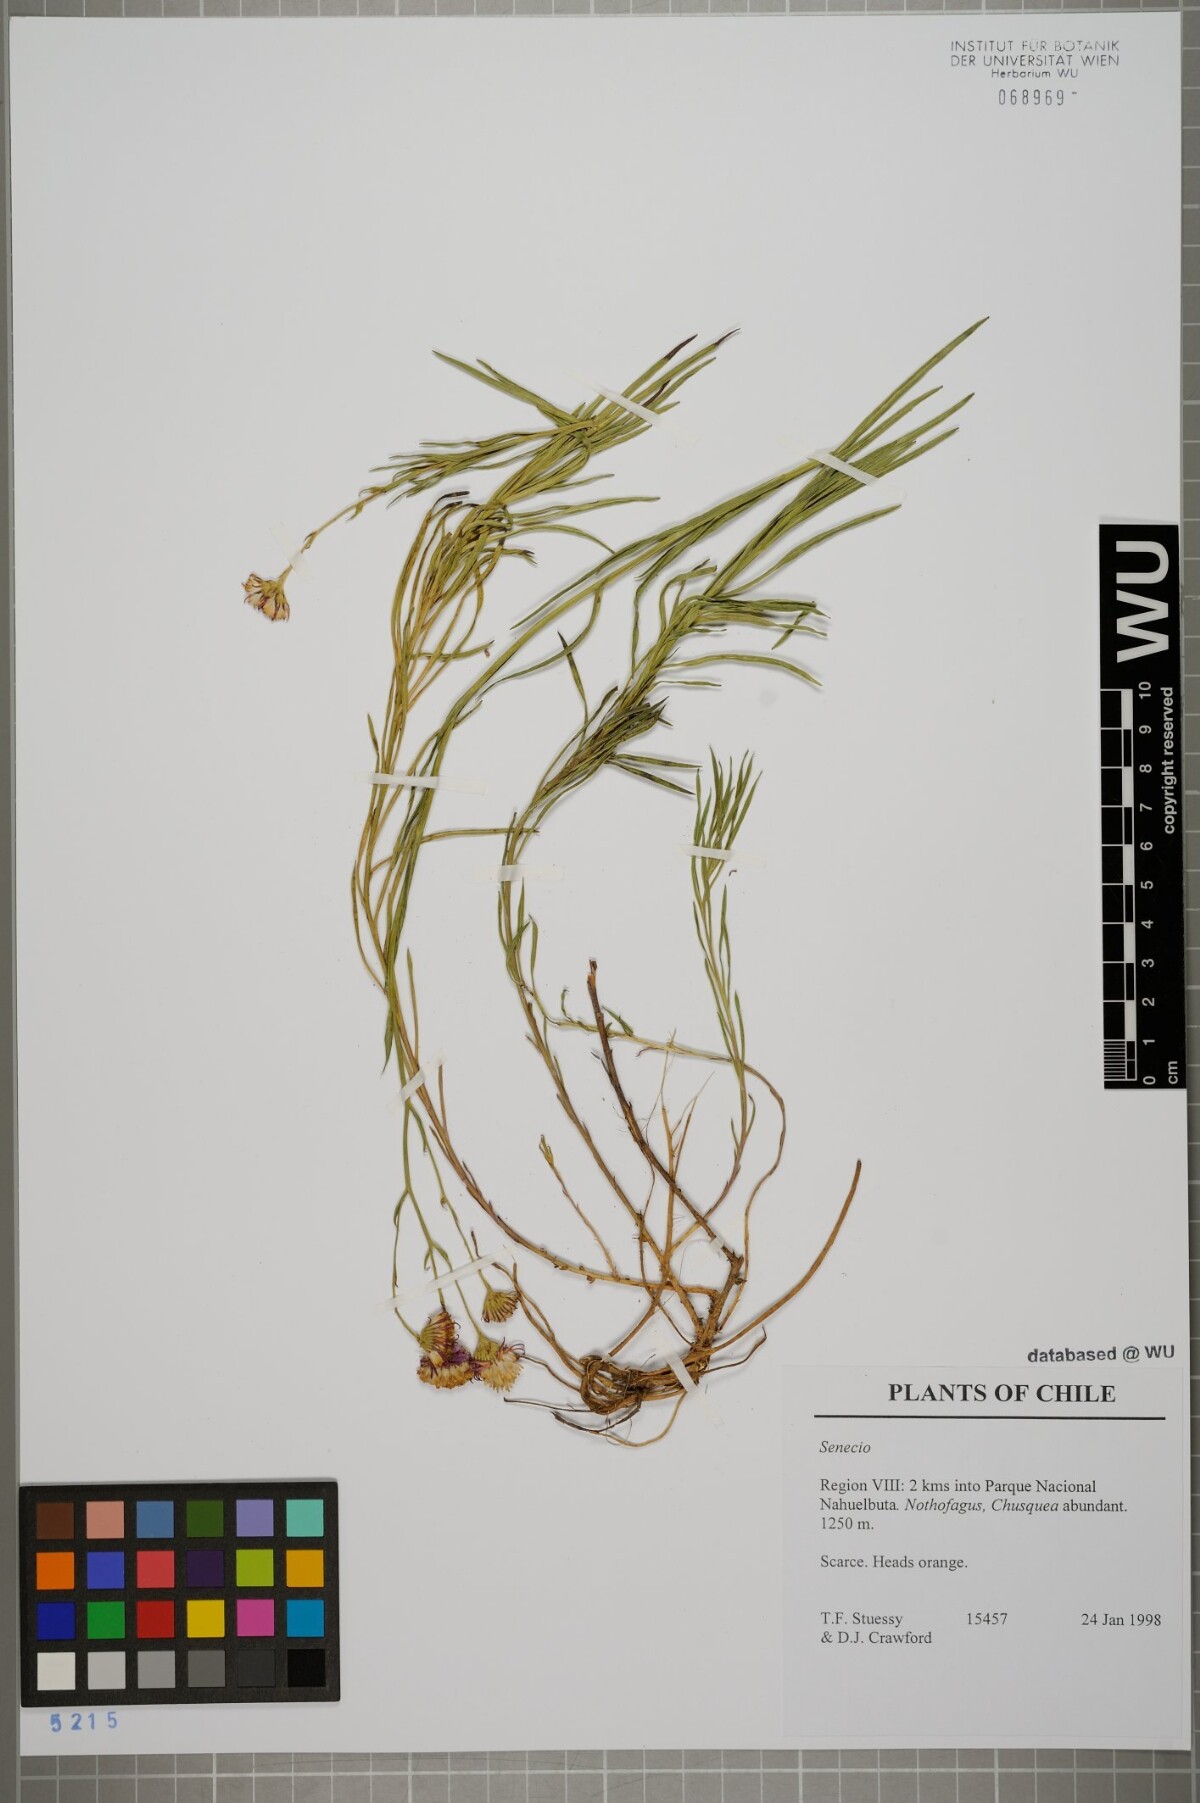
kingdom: Plantae
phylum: Tracheophyta
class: Magnoliopsida
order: Asterales
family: Asteraceae
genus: Senecio
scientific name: Senecio
